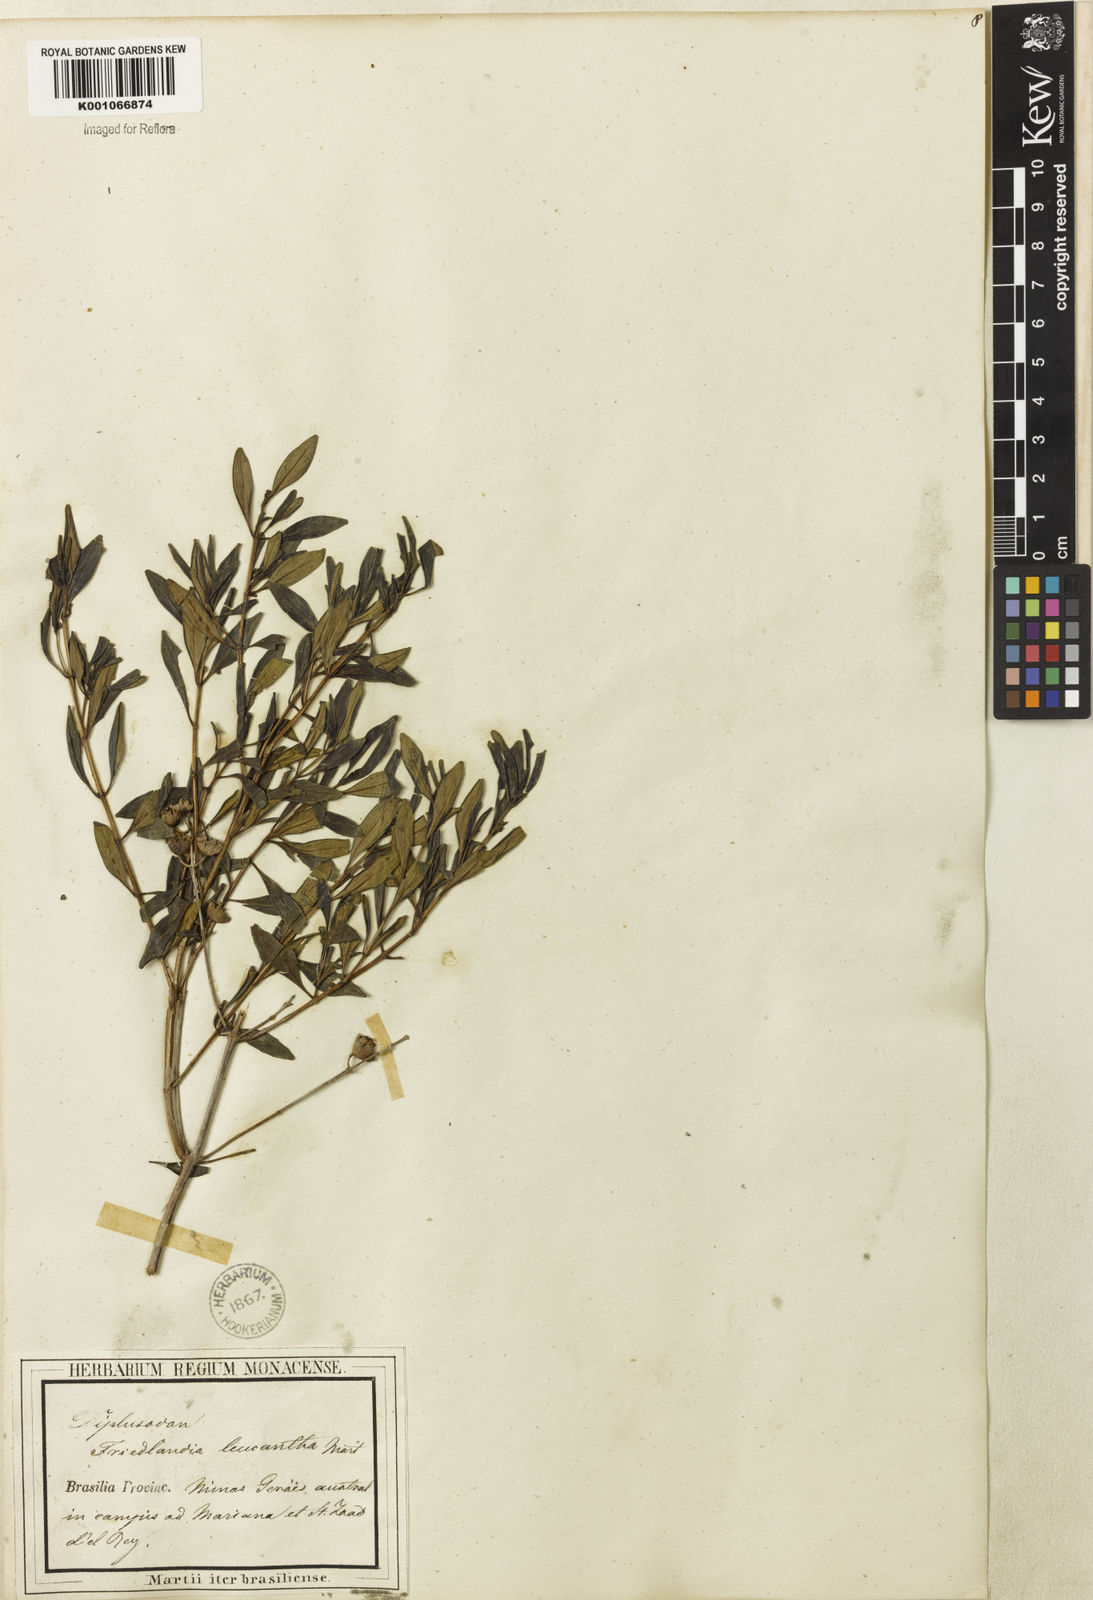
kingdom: Plantae
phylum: Tracheophyta
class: Magnoliopsida
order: Myrtales
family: Lythraceae
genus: Diplusodon
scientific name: Diplusodon virgatus
